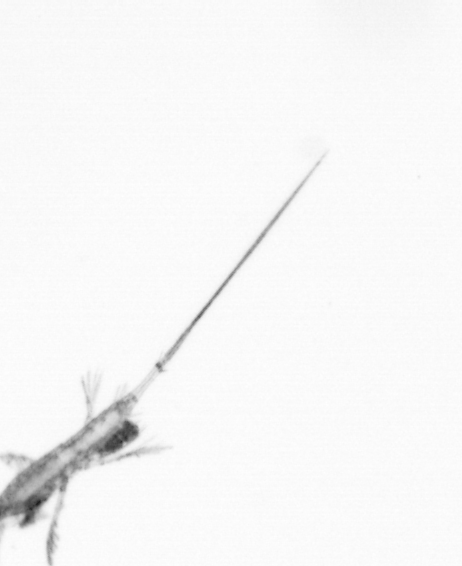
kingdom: Animalia
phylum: Arthropoda
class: Copepoda
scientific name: Copepoda
